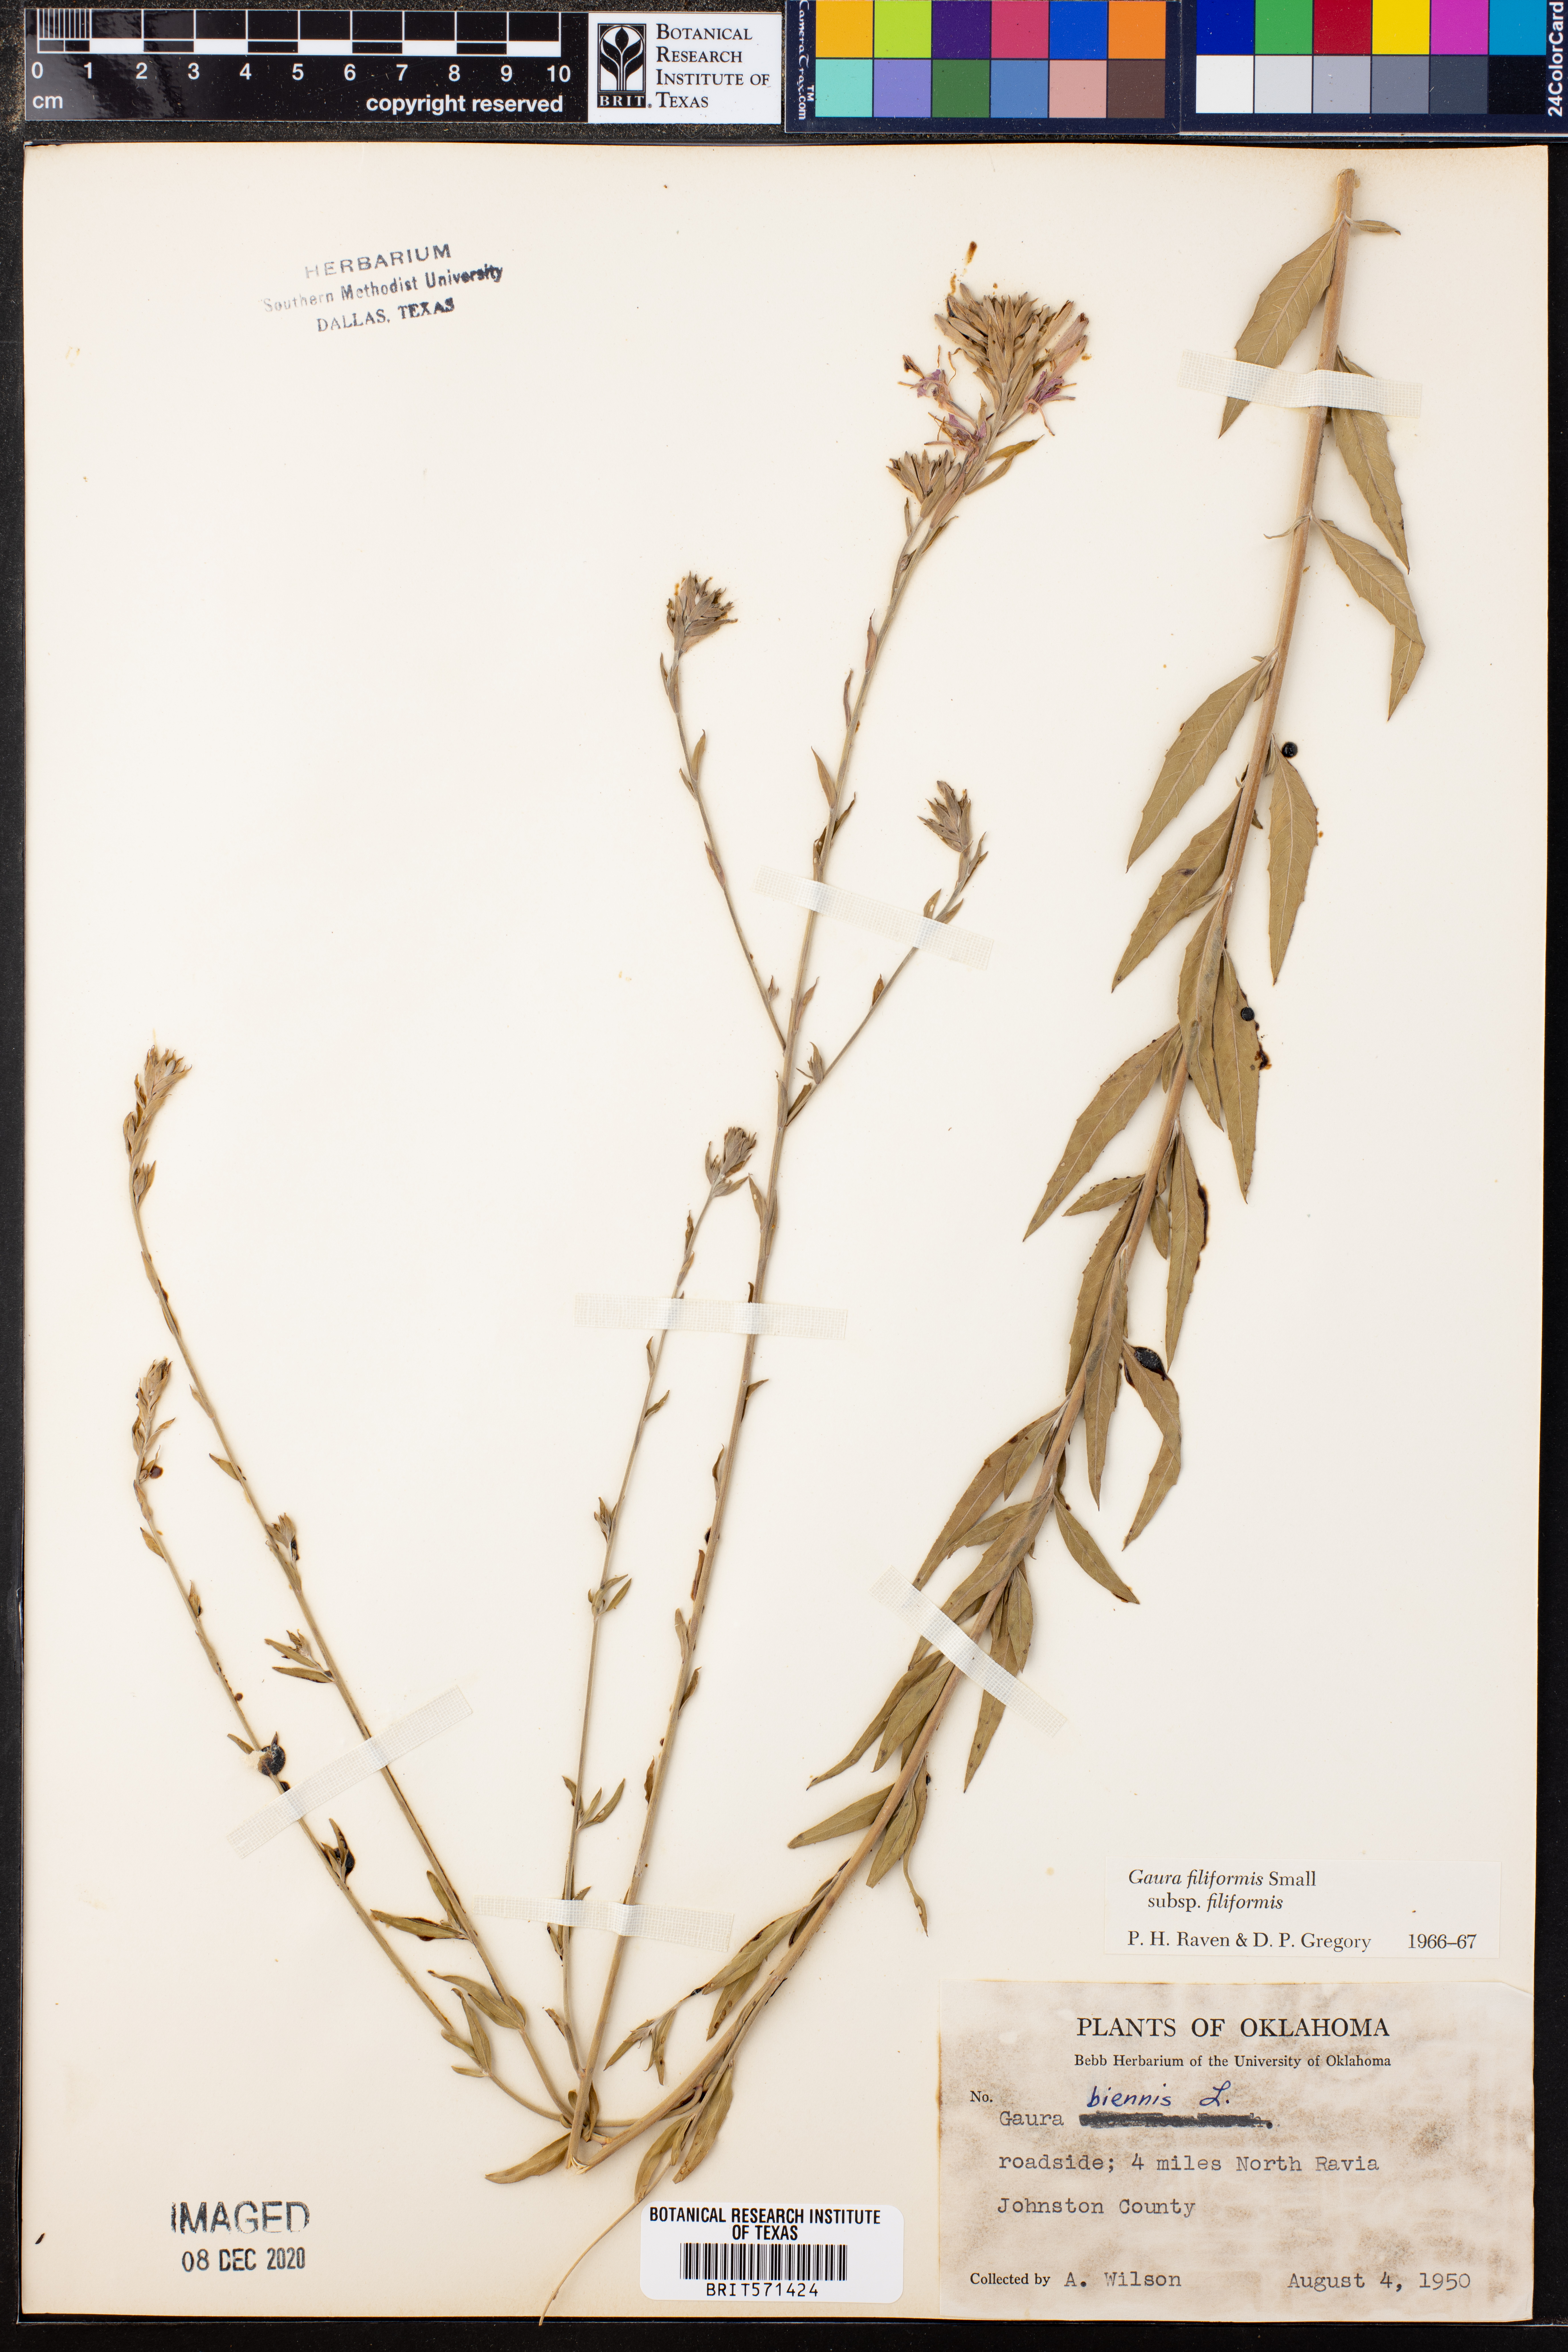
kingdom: Plantae
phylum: Tracheophyta
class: Magnoliopsida
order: Myrtales
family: Onagraceae
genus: Oenothera
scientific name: Oenothera filiformis
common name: Longflower beeblossom
